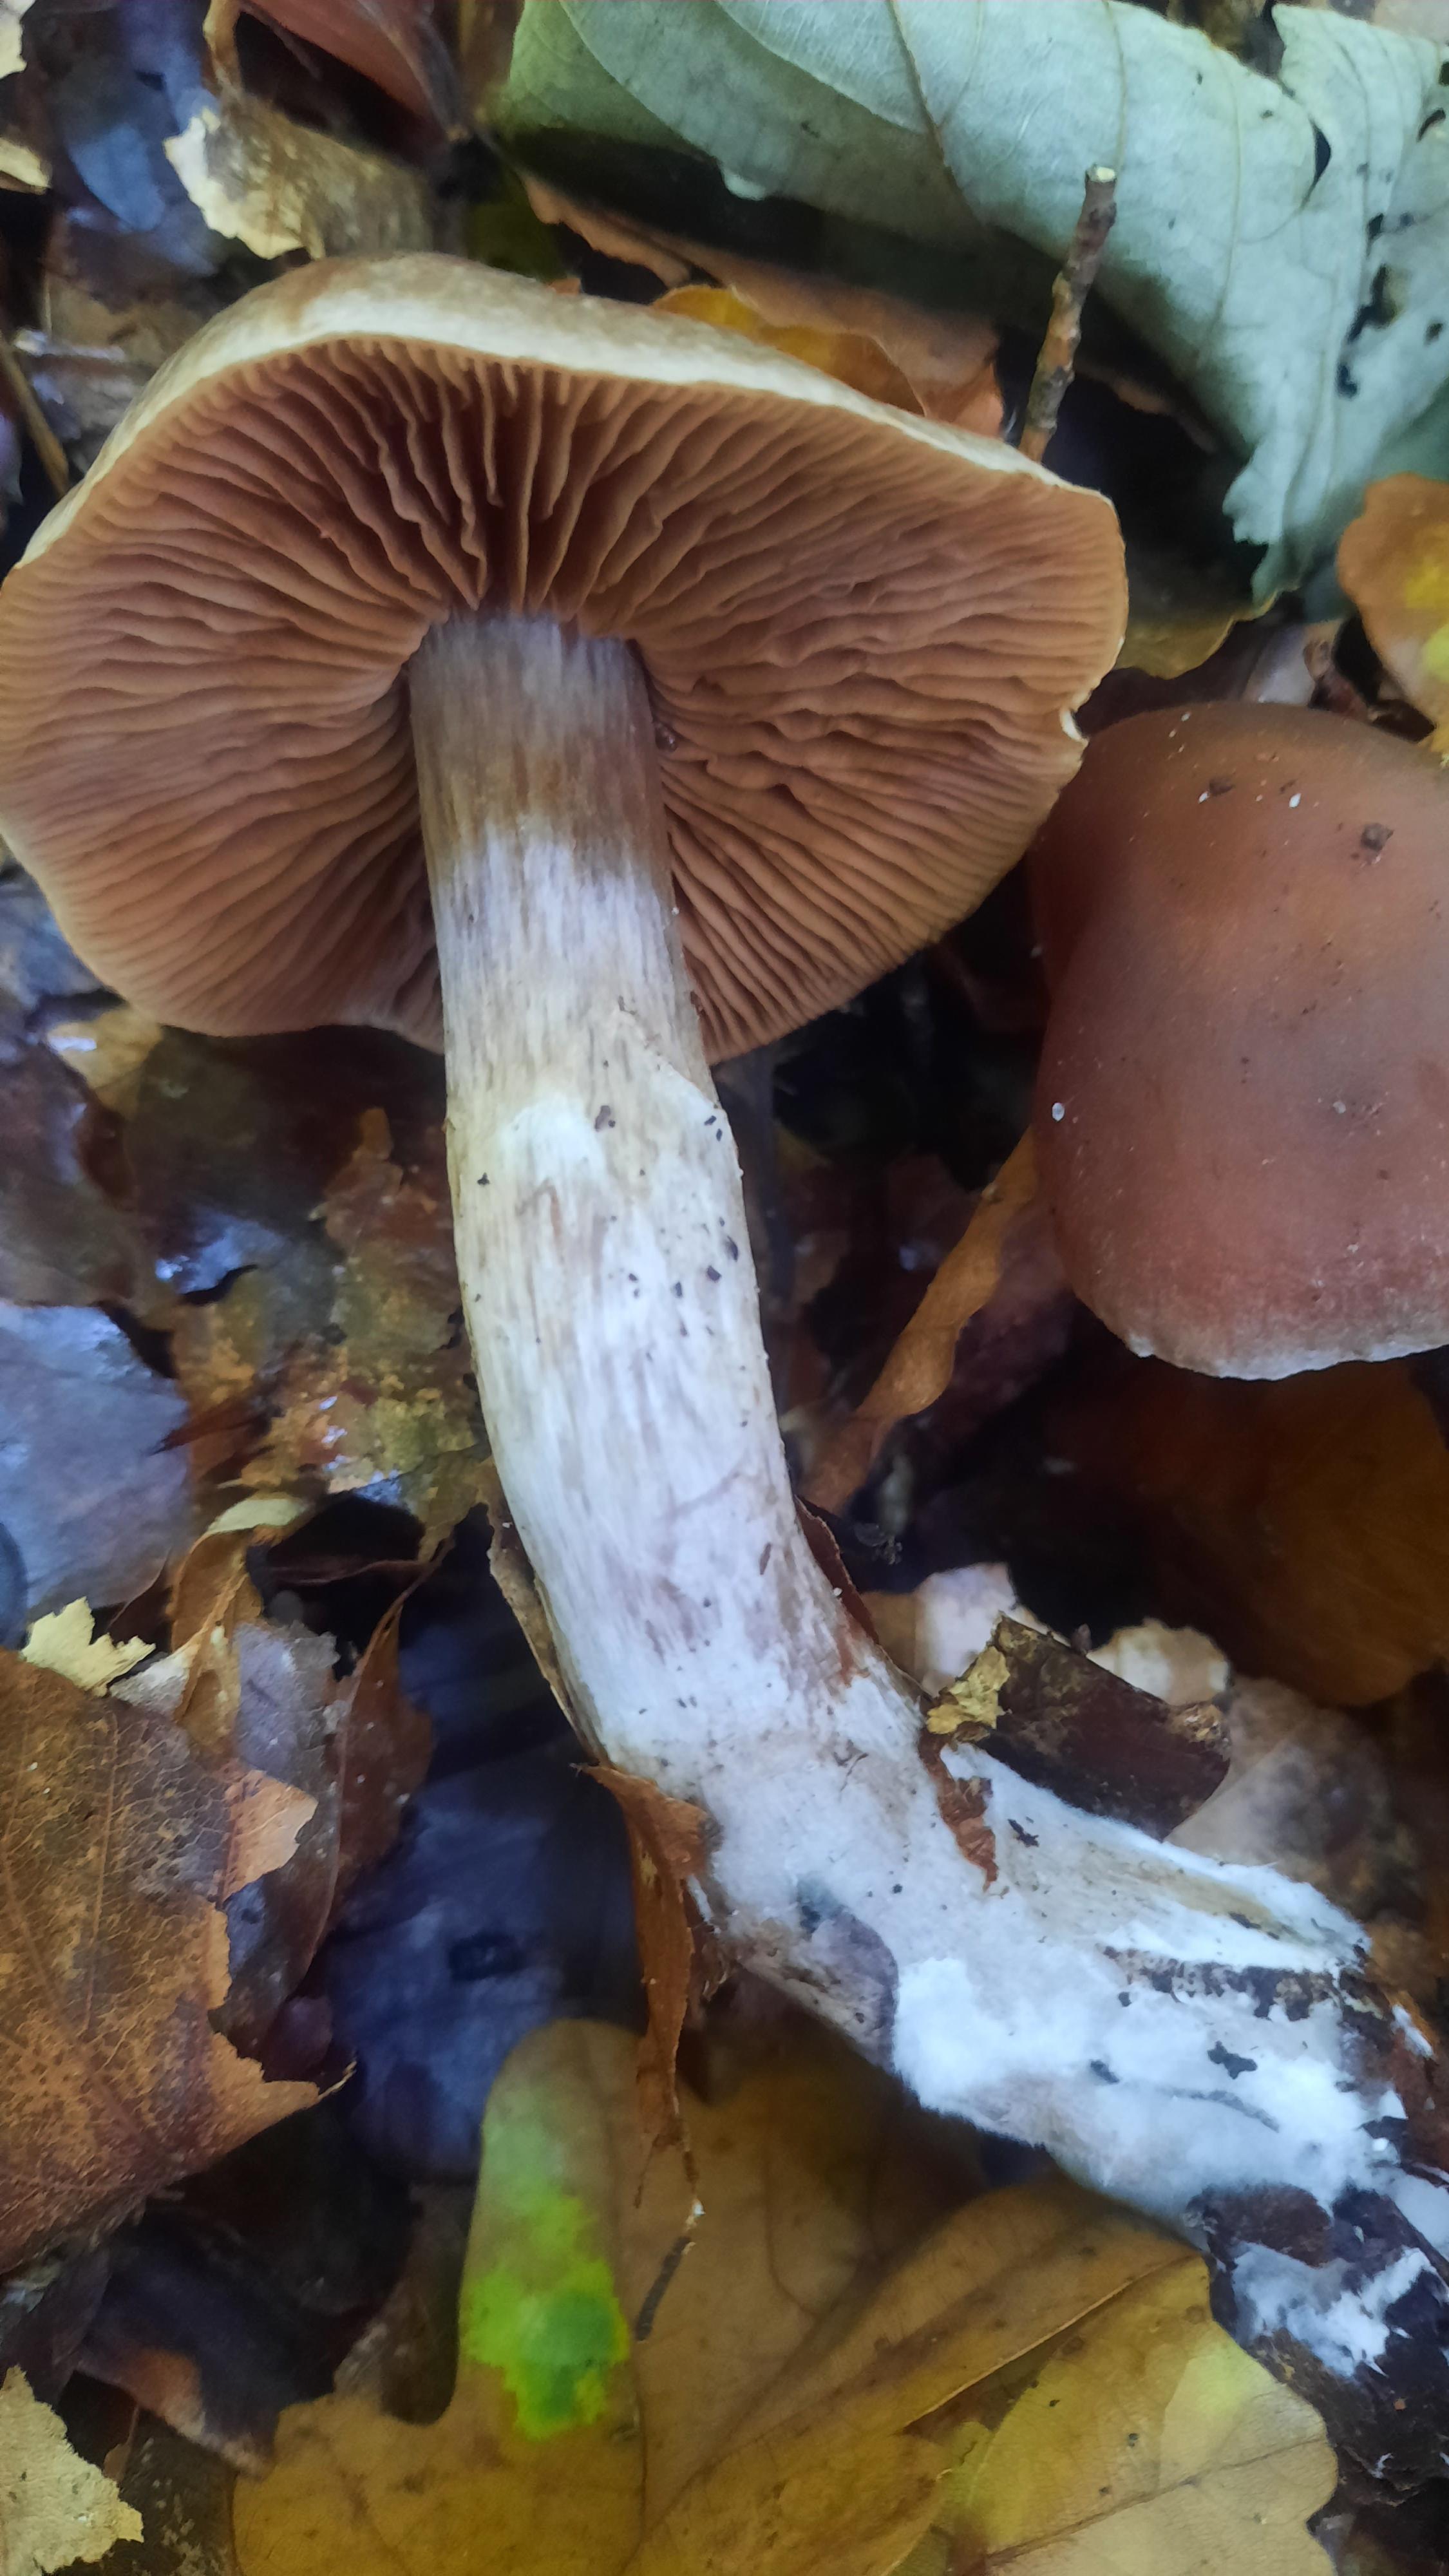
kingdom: Fungi
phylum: Basidiomycota
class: Agaricomycetes
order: Agaricales
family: Cortinariaceae
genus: Cortinarius
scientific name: Cortinarius
